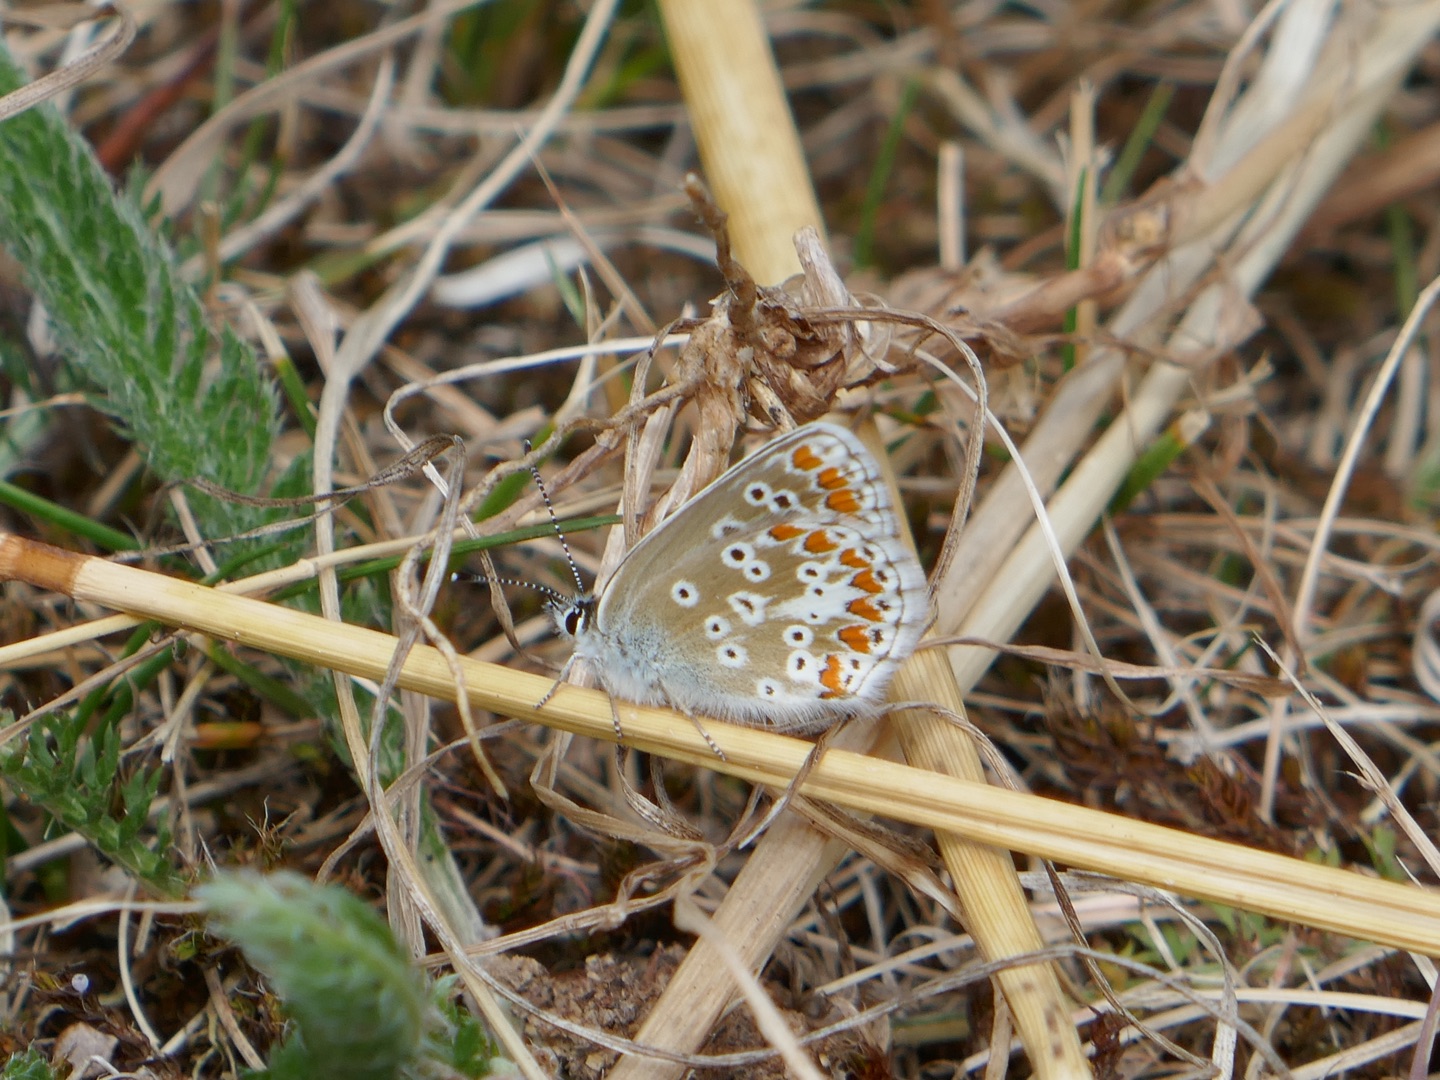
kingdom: Animalia
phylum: Arthropoda
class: Insecta
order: Lepidoptera
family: Lycaenidae
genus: Aricia
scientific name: Aricia agestis
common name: Rødplettet blåfugl
